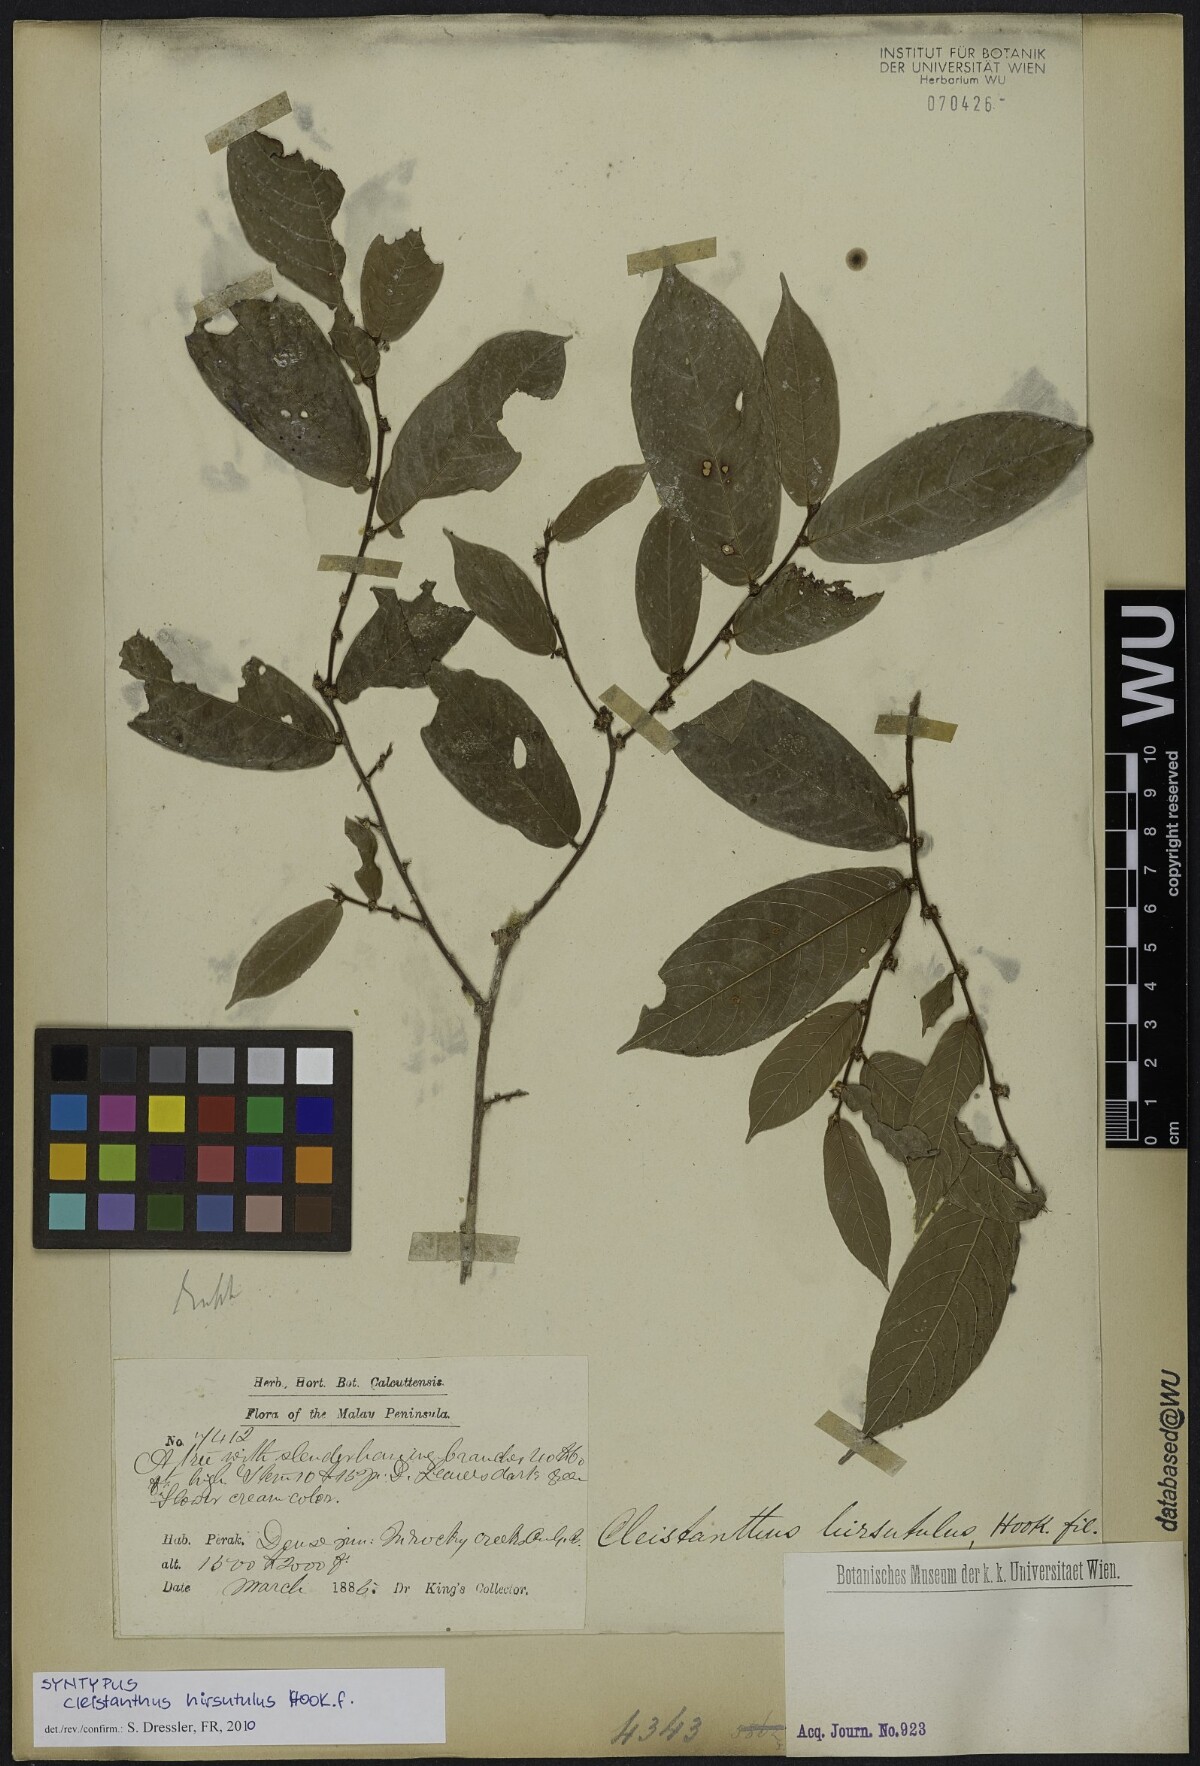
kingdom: Plantae
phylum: Tracheophyta
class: Magnoliopsida
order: Malpighiales
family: Phyllanthaceae
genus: Cleistanthus
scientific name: Cleistanthus hirsutulus
